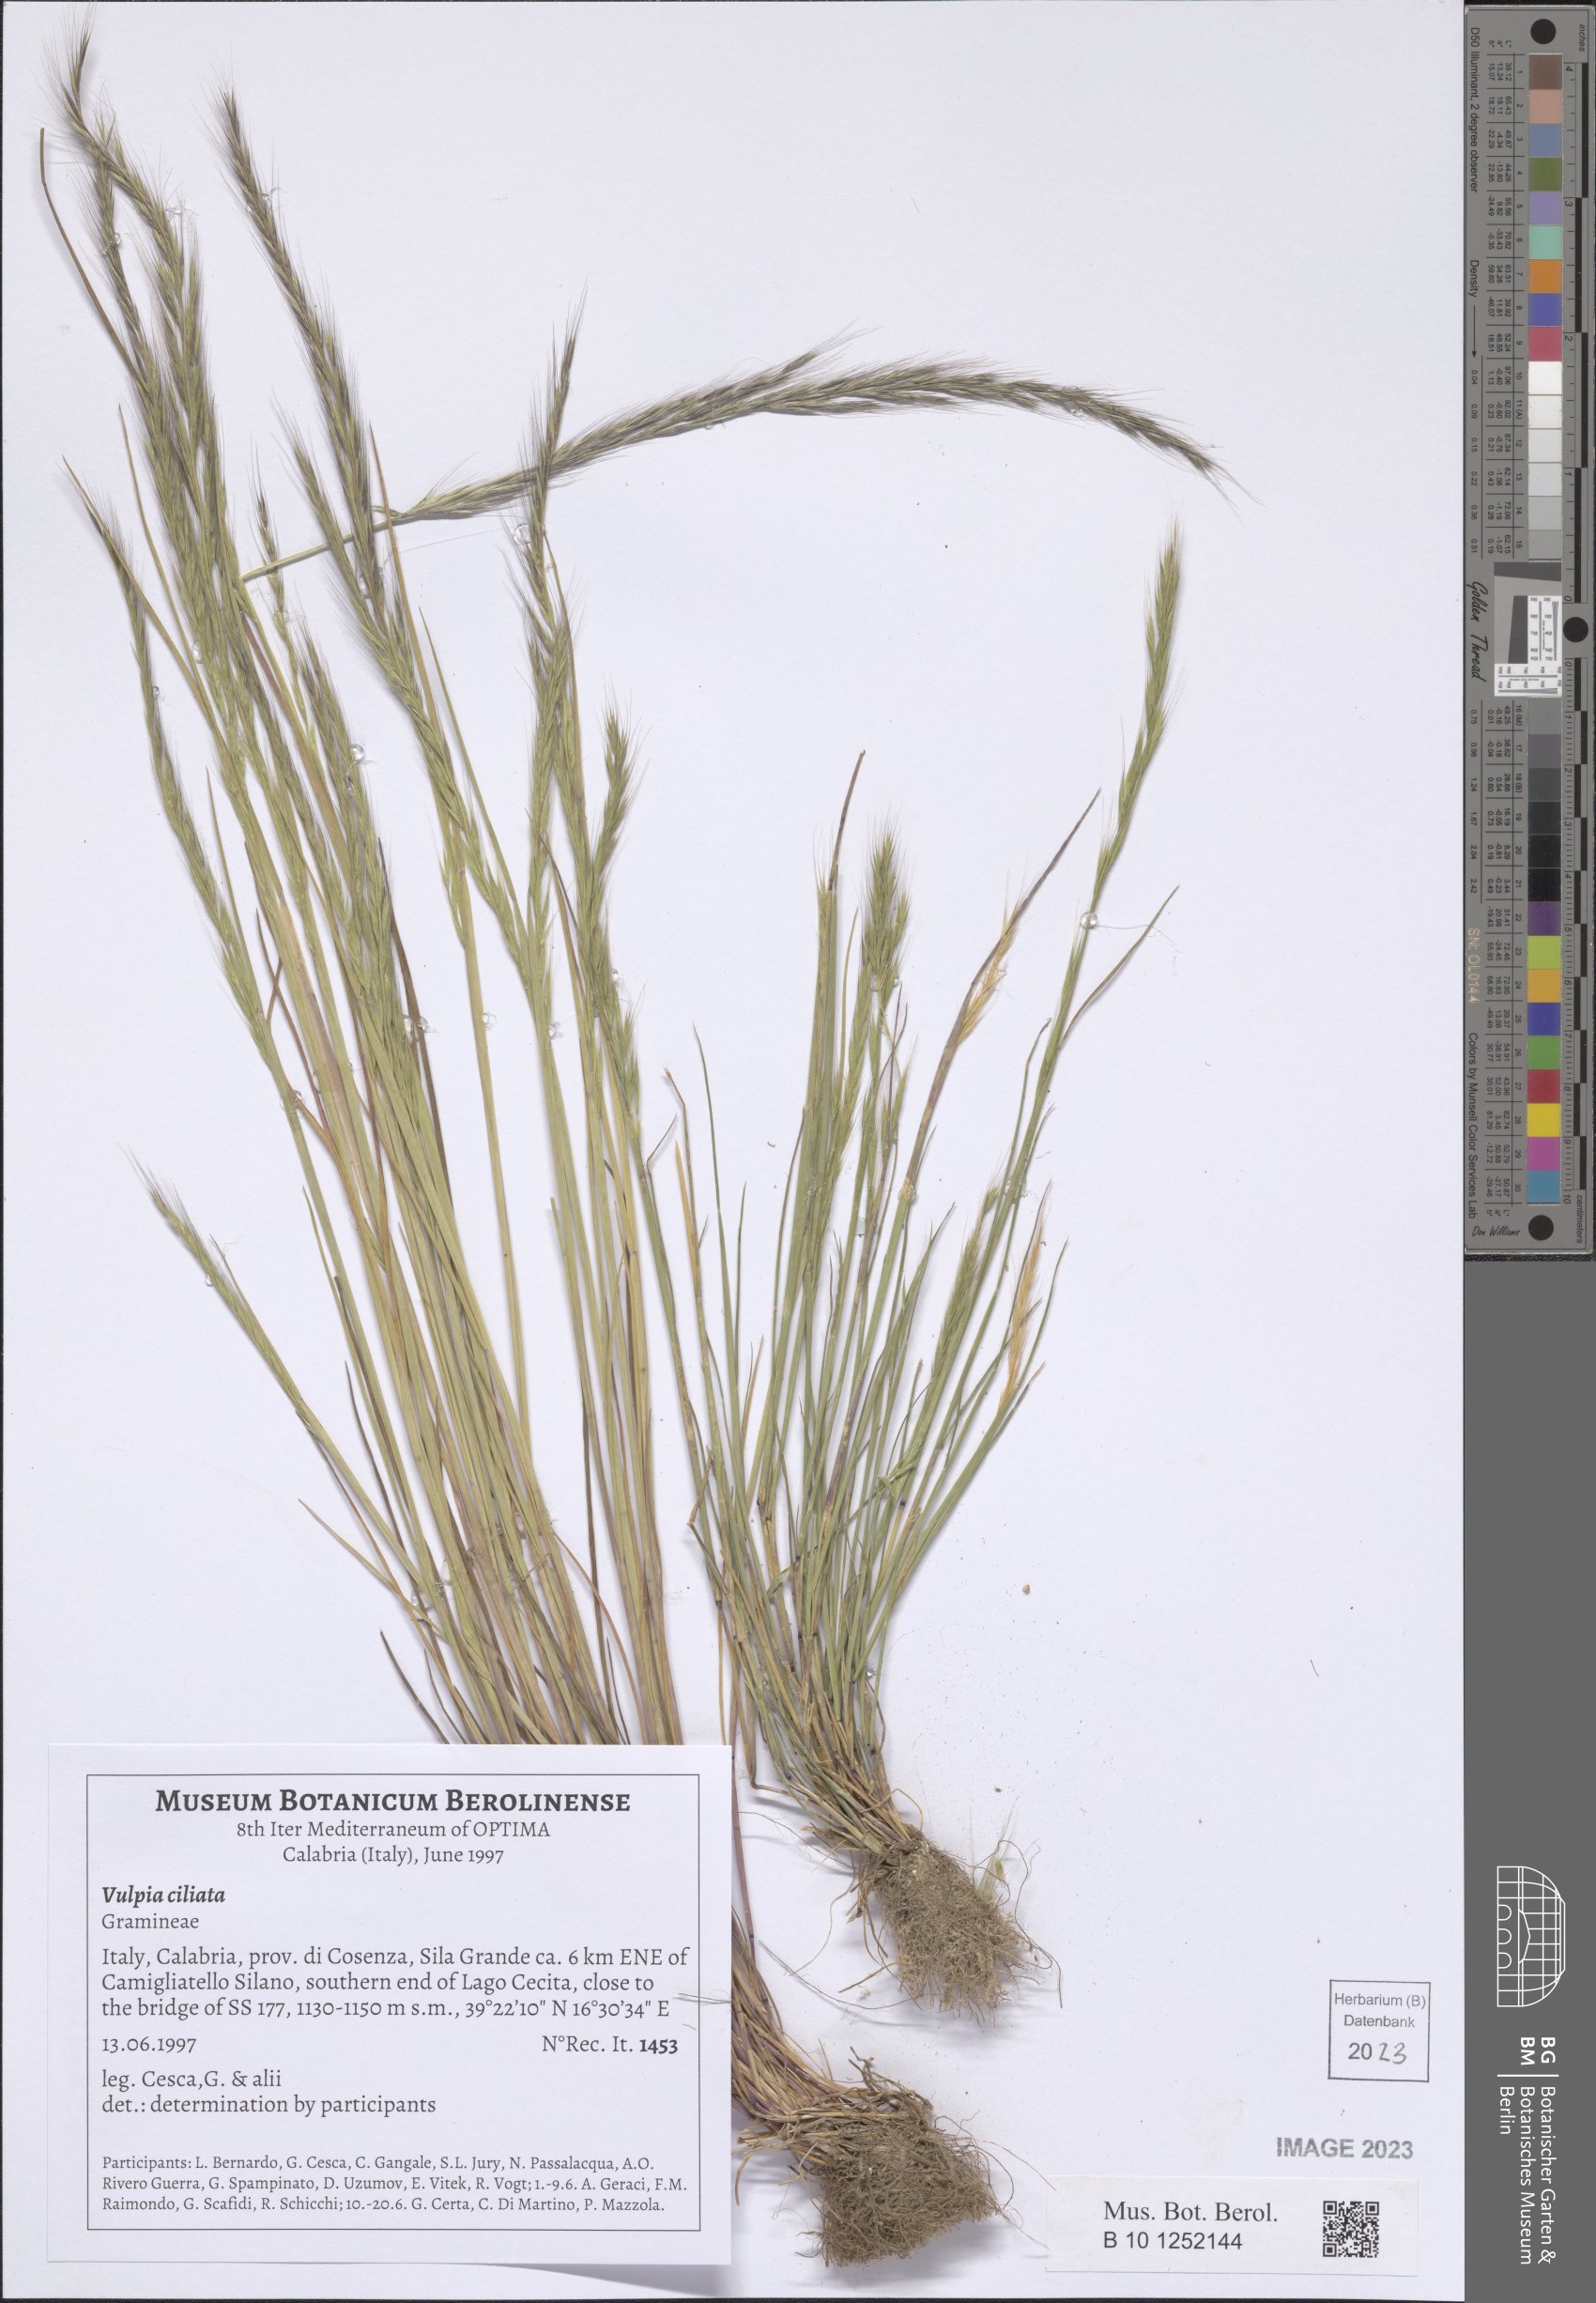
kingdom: Plantae
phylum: Tracheophyta
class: Liliopsida
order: Poales
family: Poaceae
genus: Festuca
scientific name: Festuca ambigua
